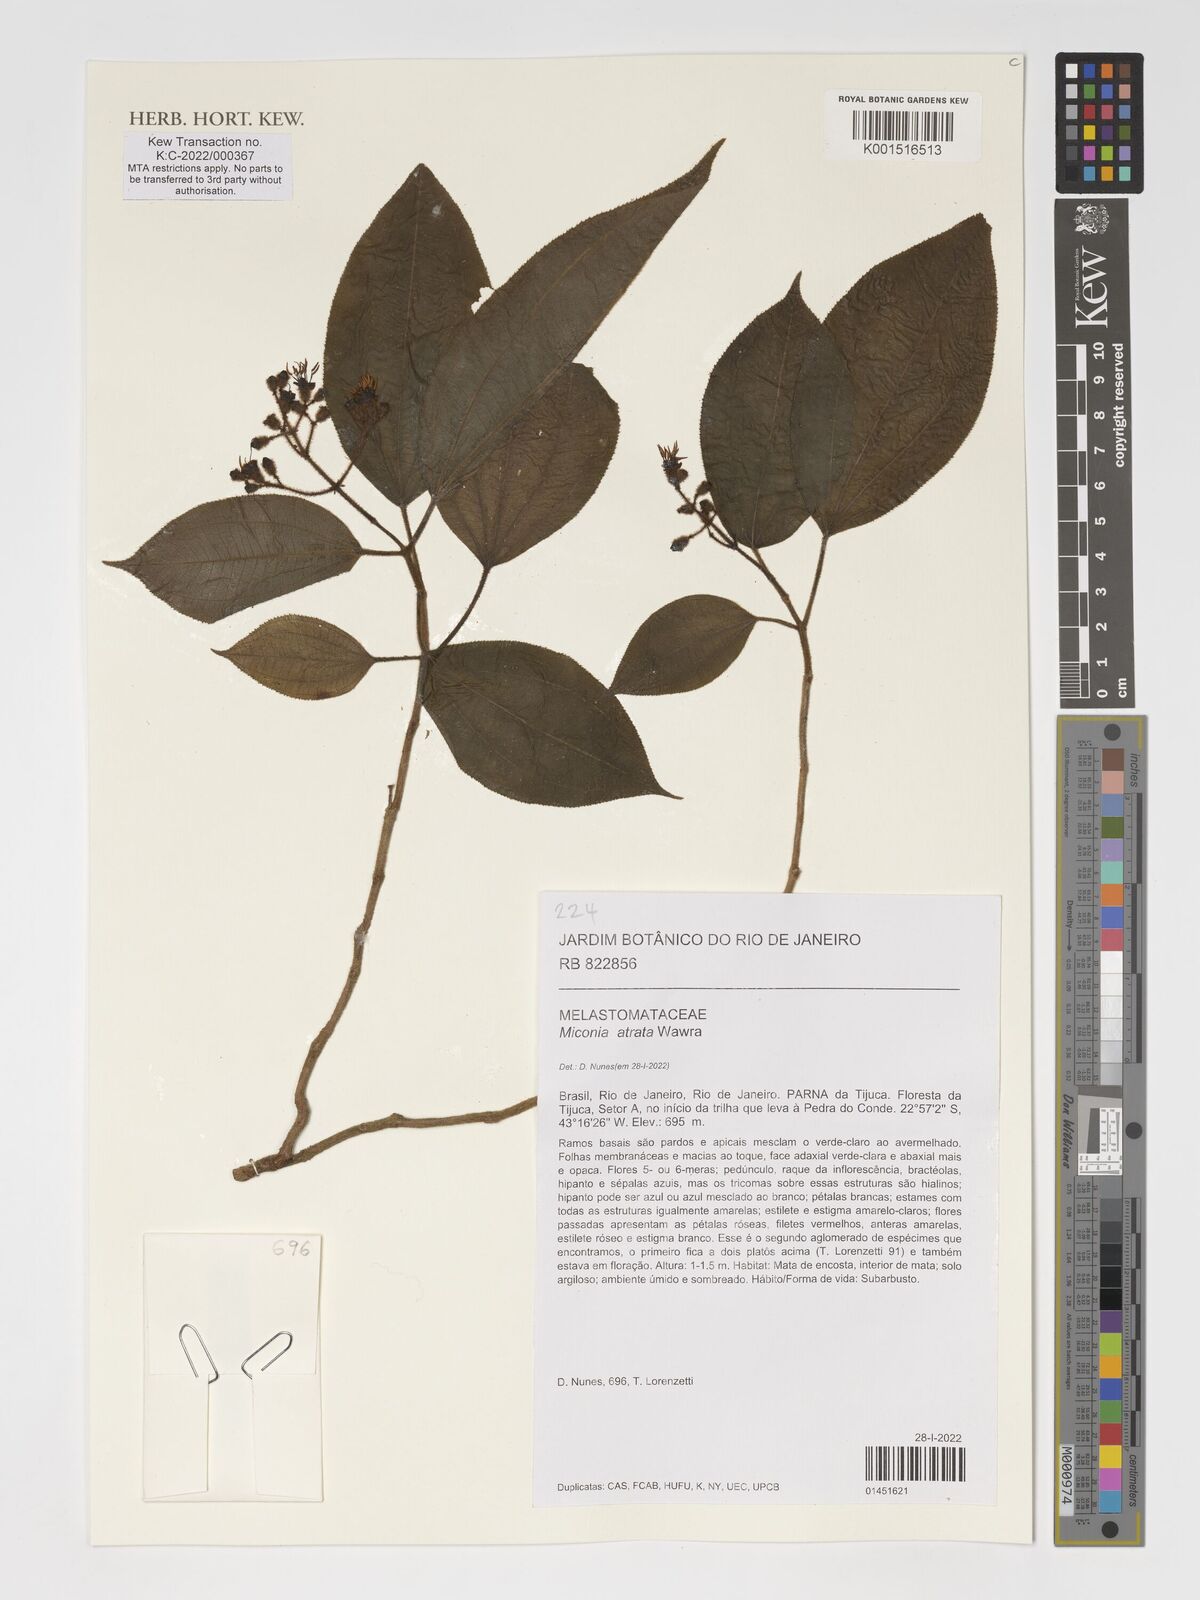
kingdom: Plantae
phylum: Tracheophyta
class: Magnoliopsida
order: Myrtales
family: Melastomataceae
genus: Miconia
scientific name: Miconia atrata
